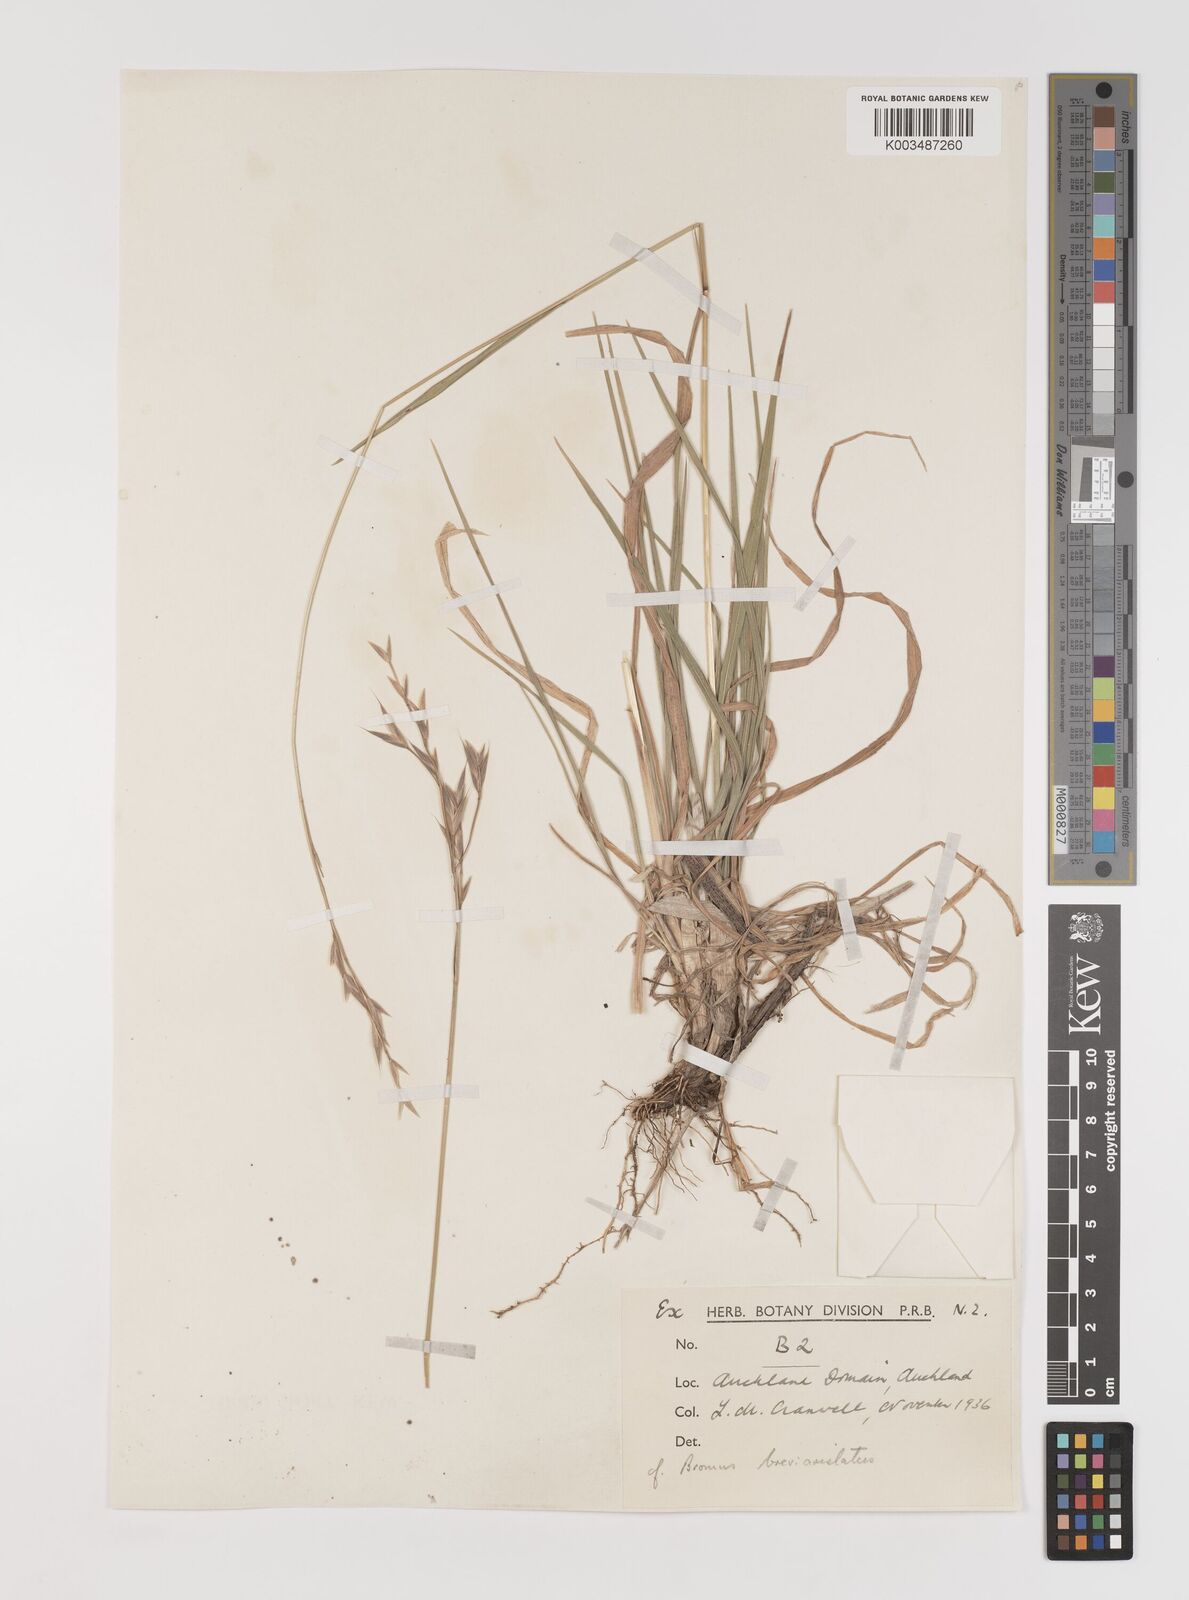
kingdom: Plantae
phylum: Tracheophyta
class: Liliopsida
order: Poales
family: Poaceae
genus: Bromus
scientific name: Bromus marginatus
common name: Western brome
